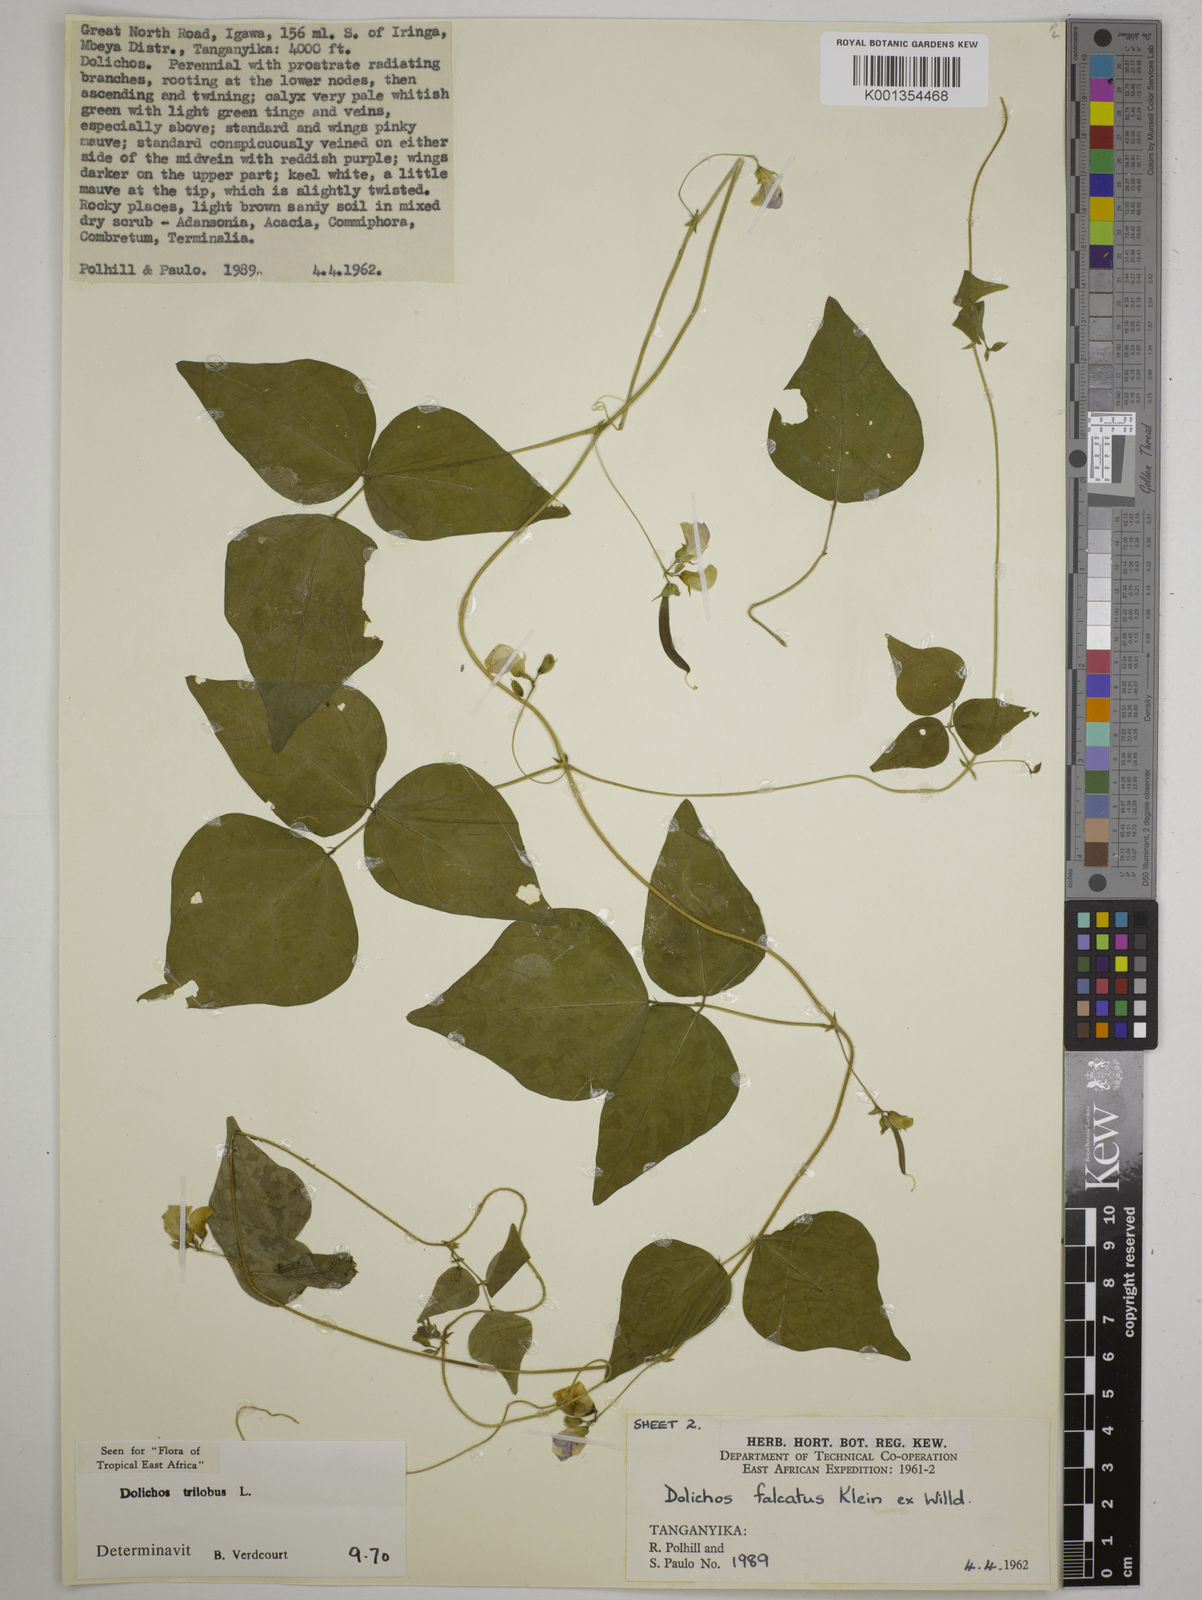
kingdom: Plantae
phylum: Tracheophyta
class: Magnoliopsida
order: Fabales
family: Fabaceae
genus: Dolichos
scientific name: Dolichos
